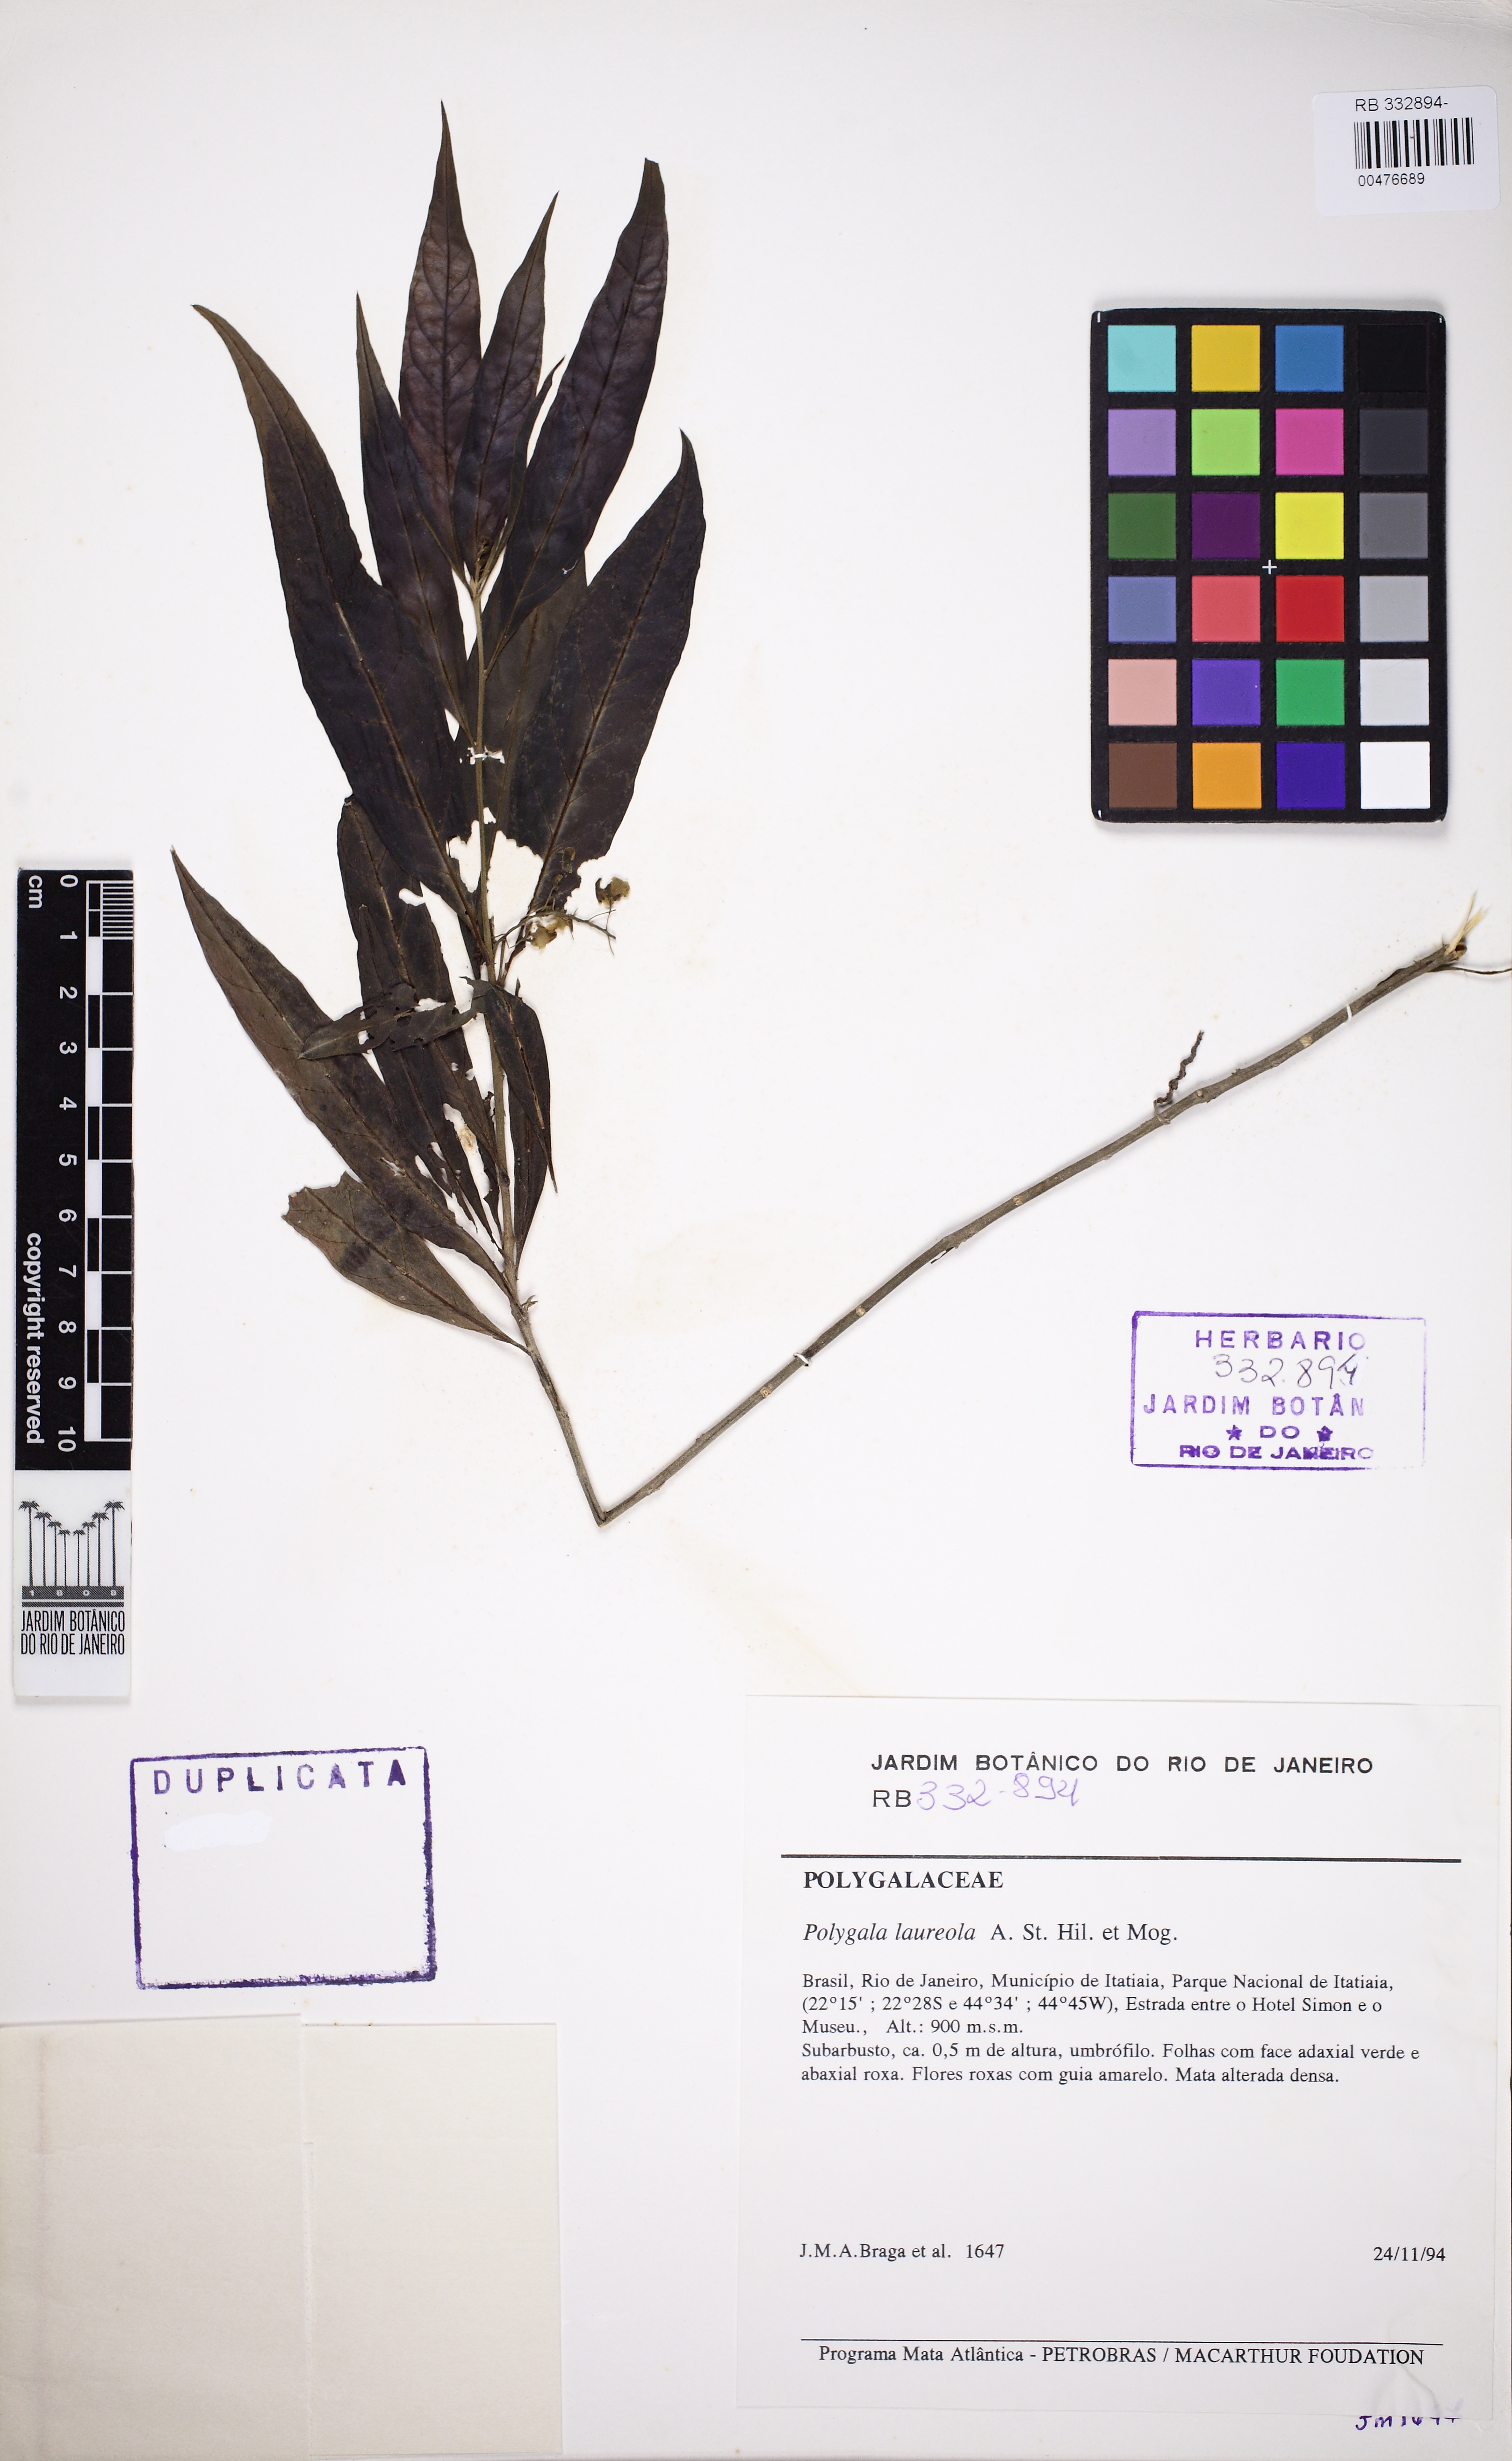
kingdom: Plantae
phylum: Tracheophyta
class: Magnoliopsida
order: Fabales
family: Polygalaceae
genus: Caamembeca
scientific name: Caamembeca salicifolia
